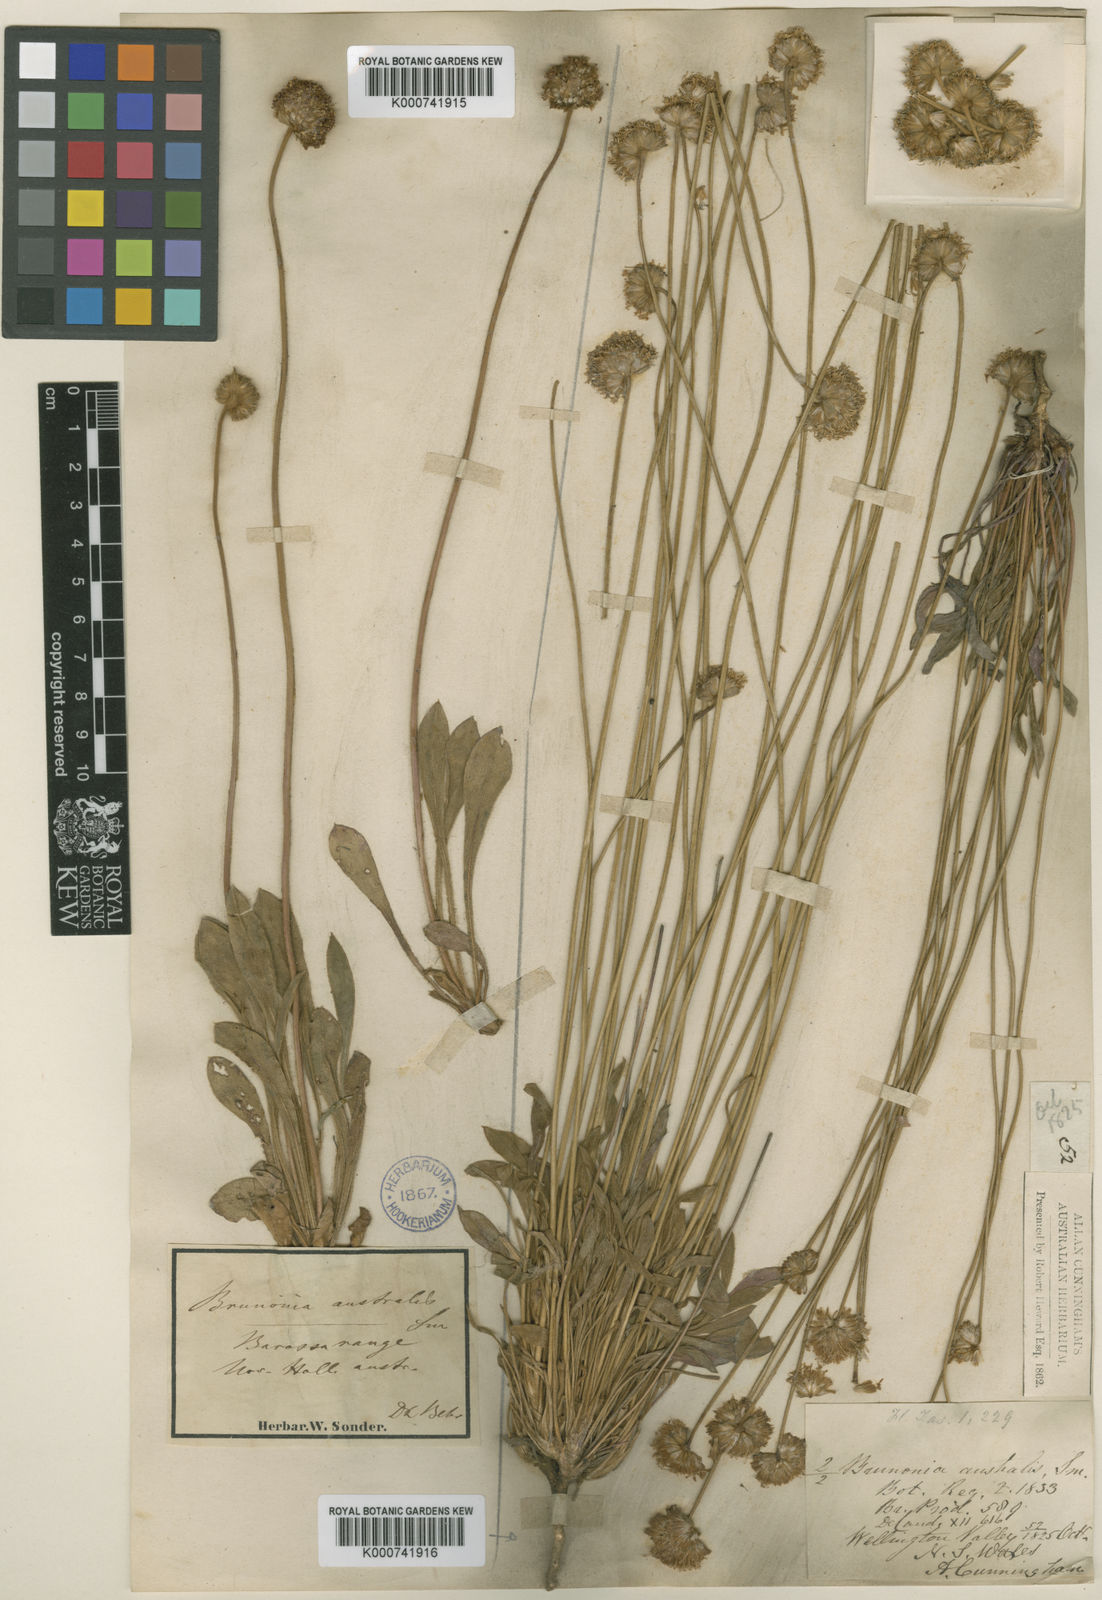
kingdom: Plantae
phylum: Tracheophyta
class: Magnoliopsida
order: Asterales
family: Goodeniaceae
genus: Brunonia
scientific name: Brunonia
